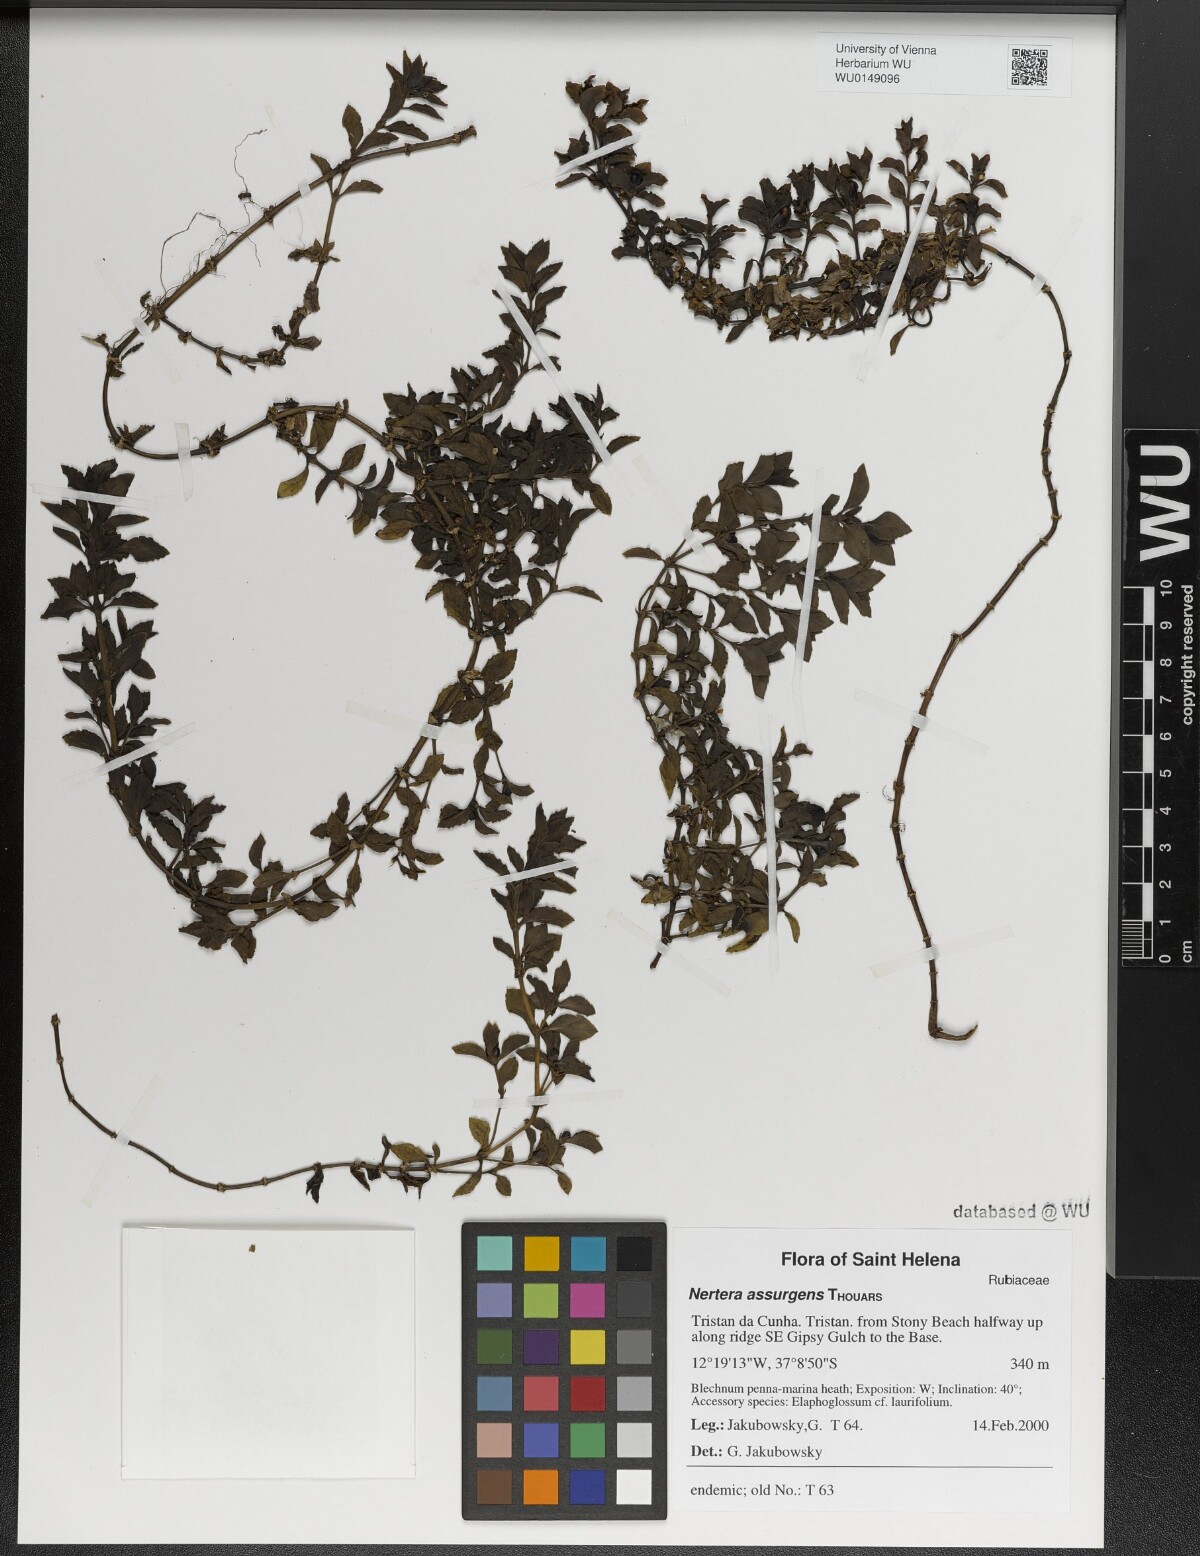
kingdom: Plantae
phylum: Tracheophyta
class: Magnoliopsida
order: Gentianales
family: Rubiaceae
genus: Nertera
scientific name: Nertera granadensis
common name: Beadplant
